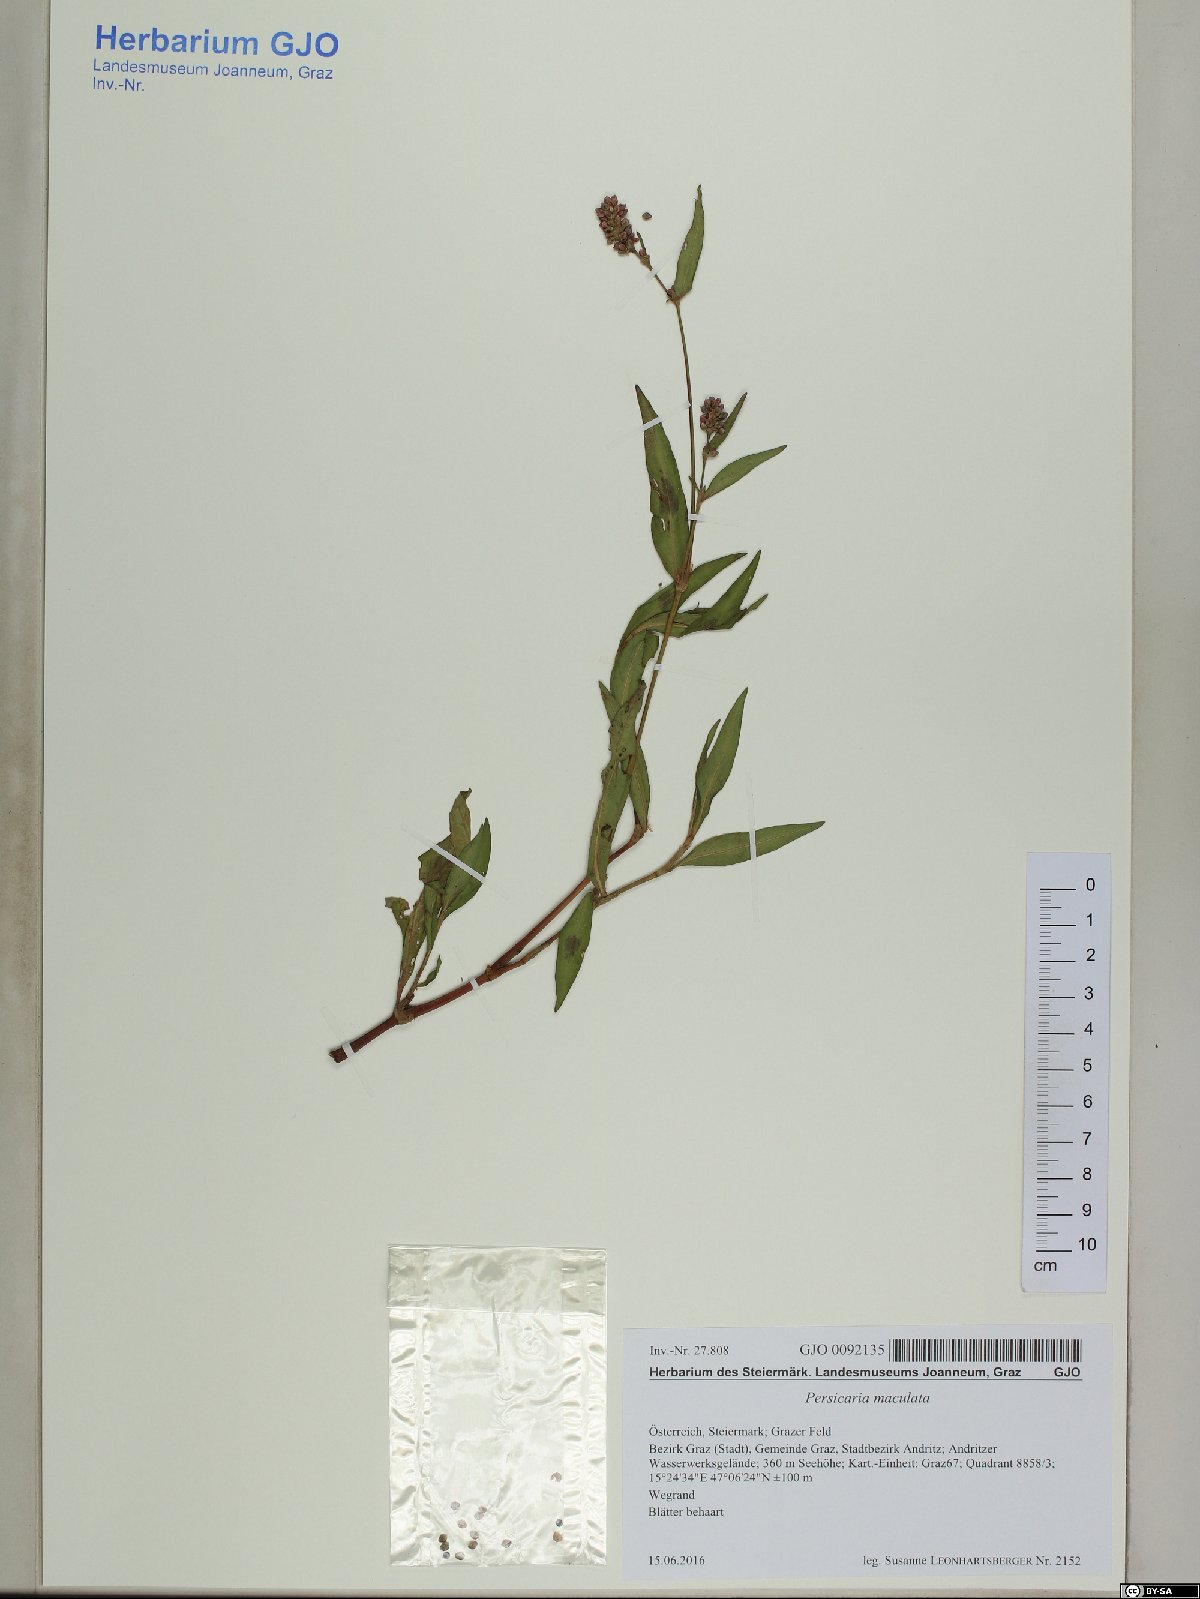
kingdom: Plantae
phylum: Tracheophyta
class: Magnoliopsida
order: Caryophyllales
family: Polygonaceae
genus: Persicaria
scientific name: Persicaria maculosa
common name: Redshank
